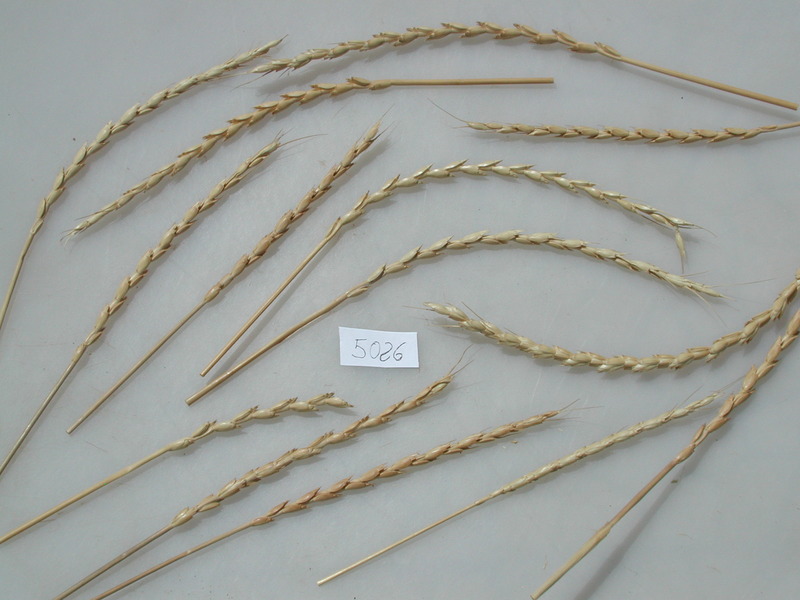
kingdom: Plantae
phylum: Tracheophyta
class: Liliopsida
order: Poales
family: Poaceae
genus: Triticum
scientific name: Triticum aestivum
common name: Spelt
